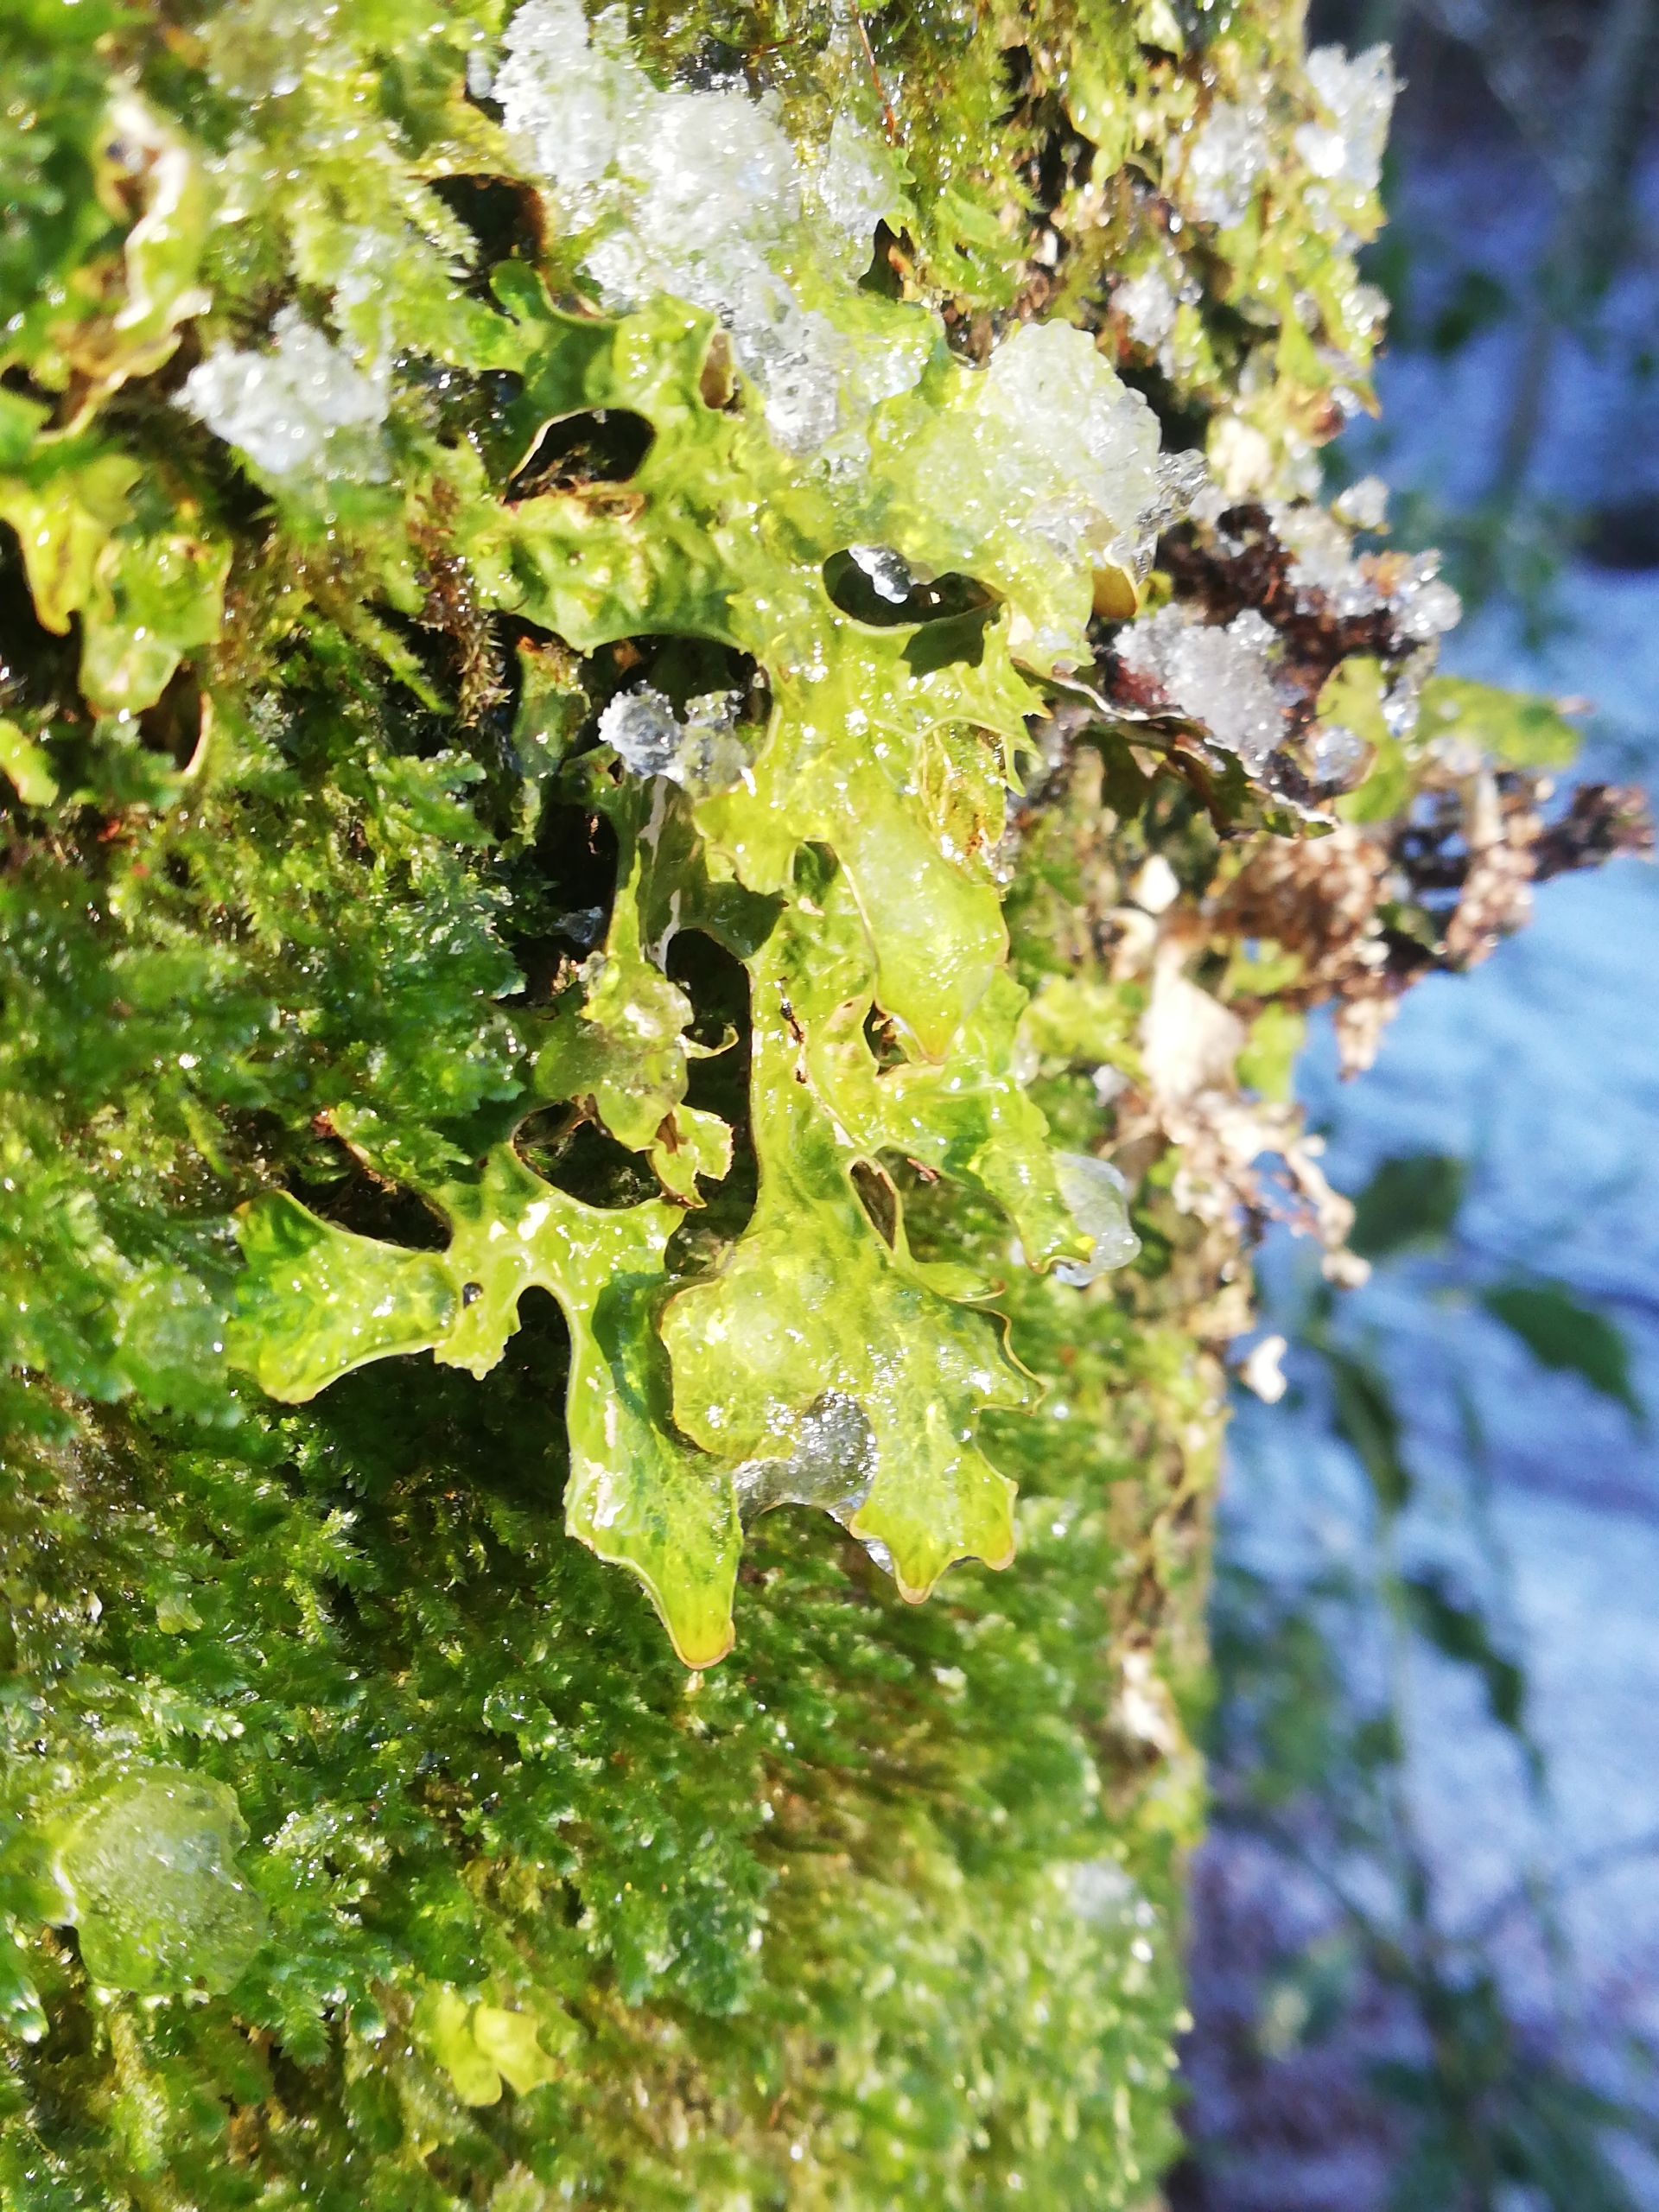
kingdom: Fungi
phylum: Ascomycota
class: Lecanoromycetes
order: Peltigerales
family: Lobariaceae
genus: Lobaria
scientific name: Lobaria pulmonaria
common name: Almindelig lungelav
